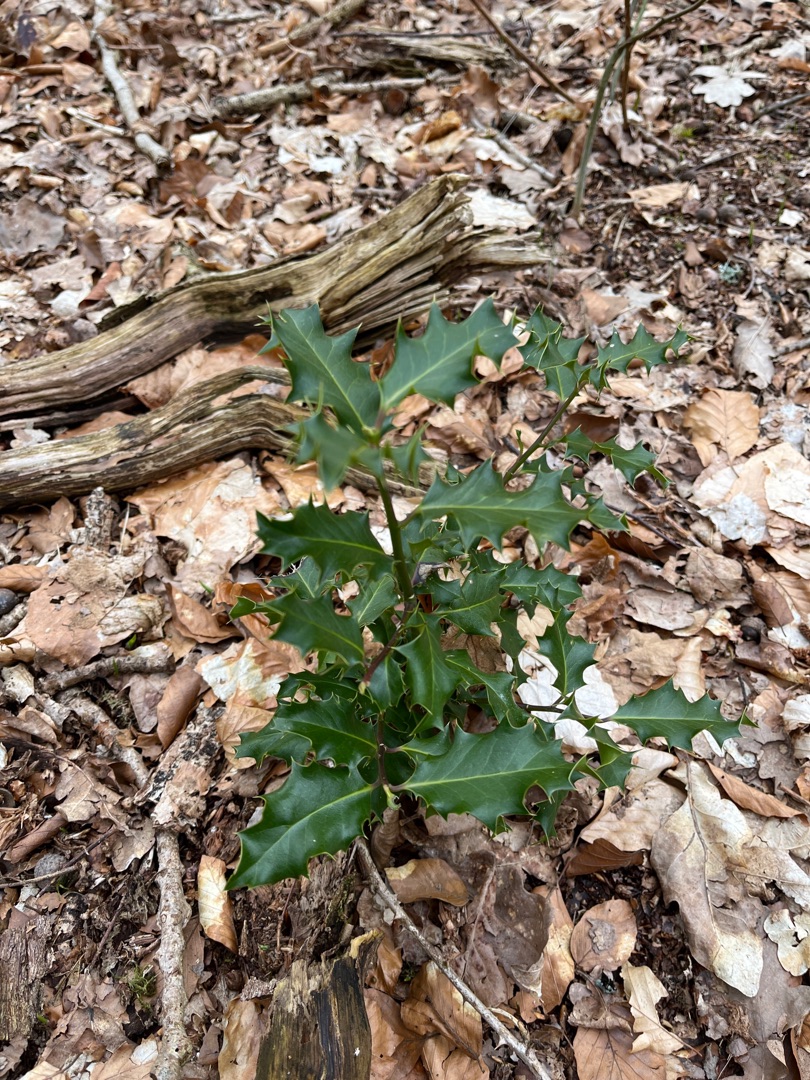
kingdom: Plantae
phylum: Tracheophyta
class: Magnoliopsida
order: Aquifoliales
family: Aquifoliaceae
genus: Ilex
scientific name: Ilex aquifolium
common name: Kristtorn
